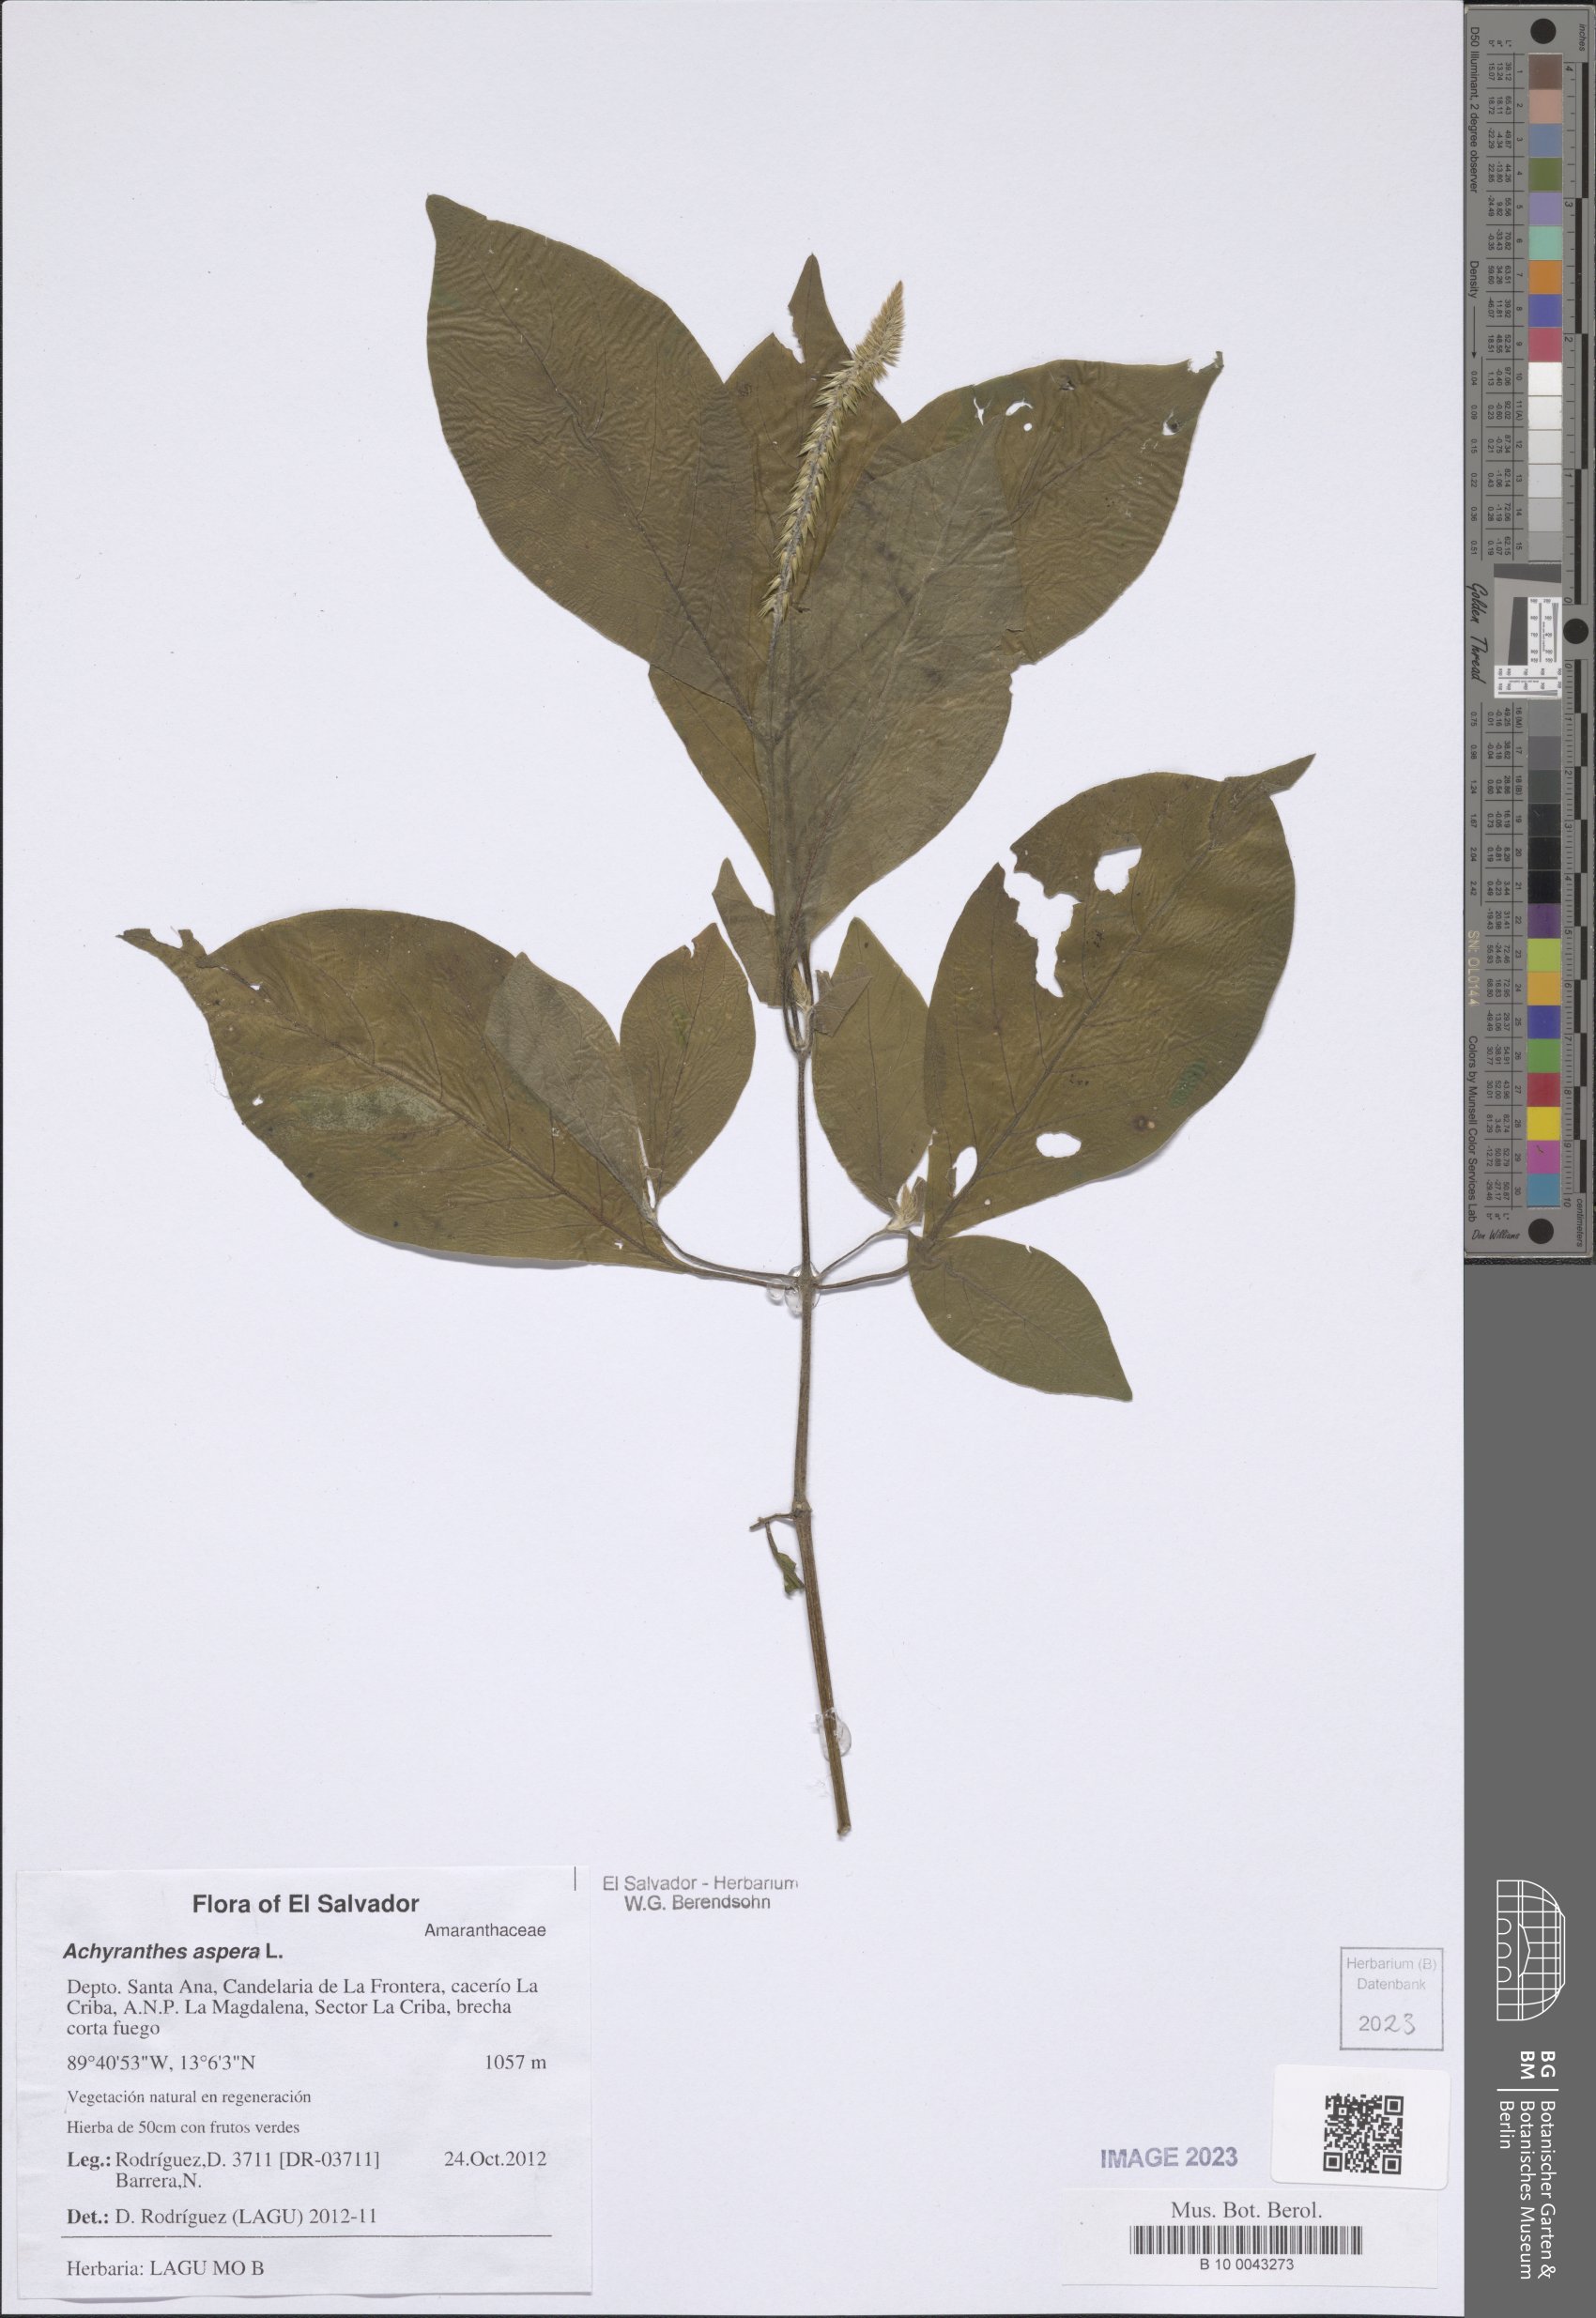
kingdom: Plantae
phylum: Tracheophyta
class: Magnoliopsida
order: Caryophyllales
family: Amaranthaceae
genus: Achyranthes
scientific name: Achyranthes aspera
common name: Devil's horsewhip
